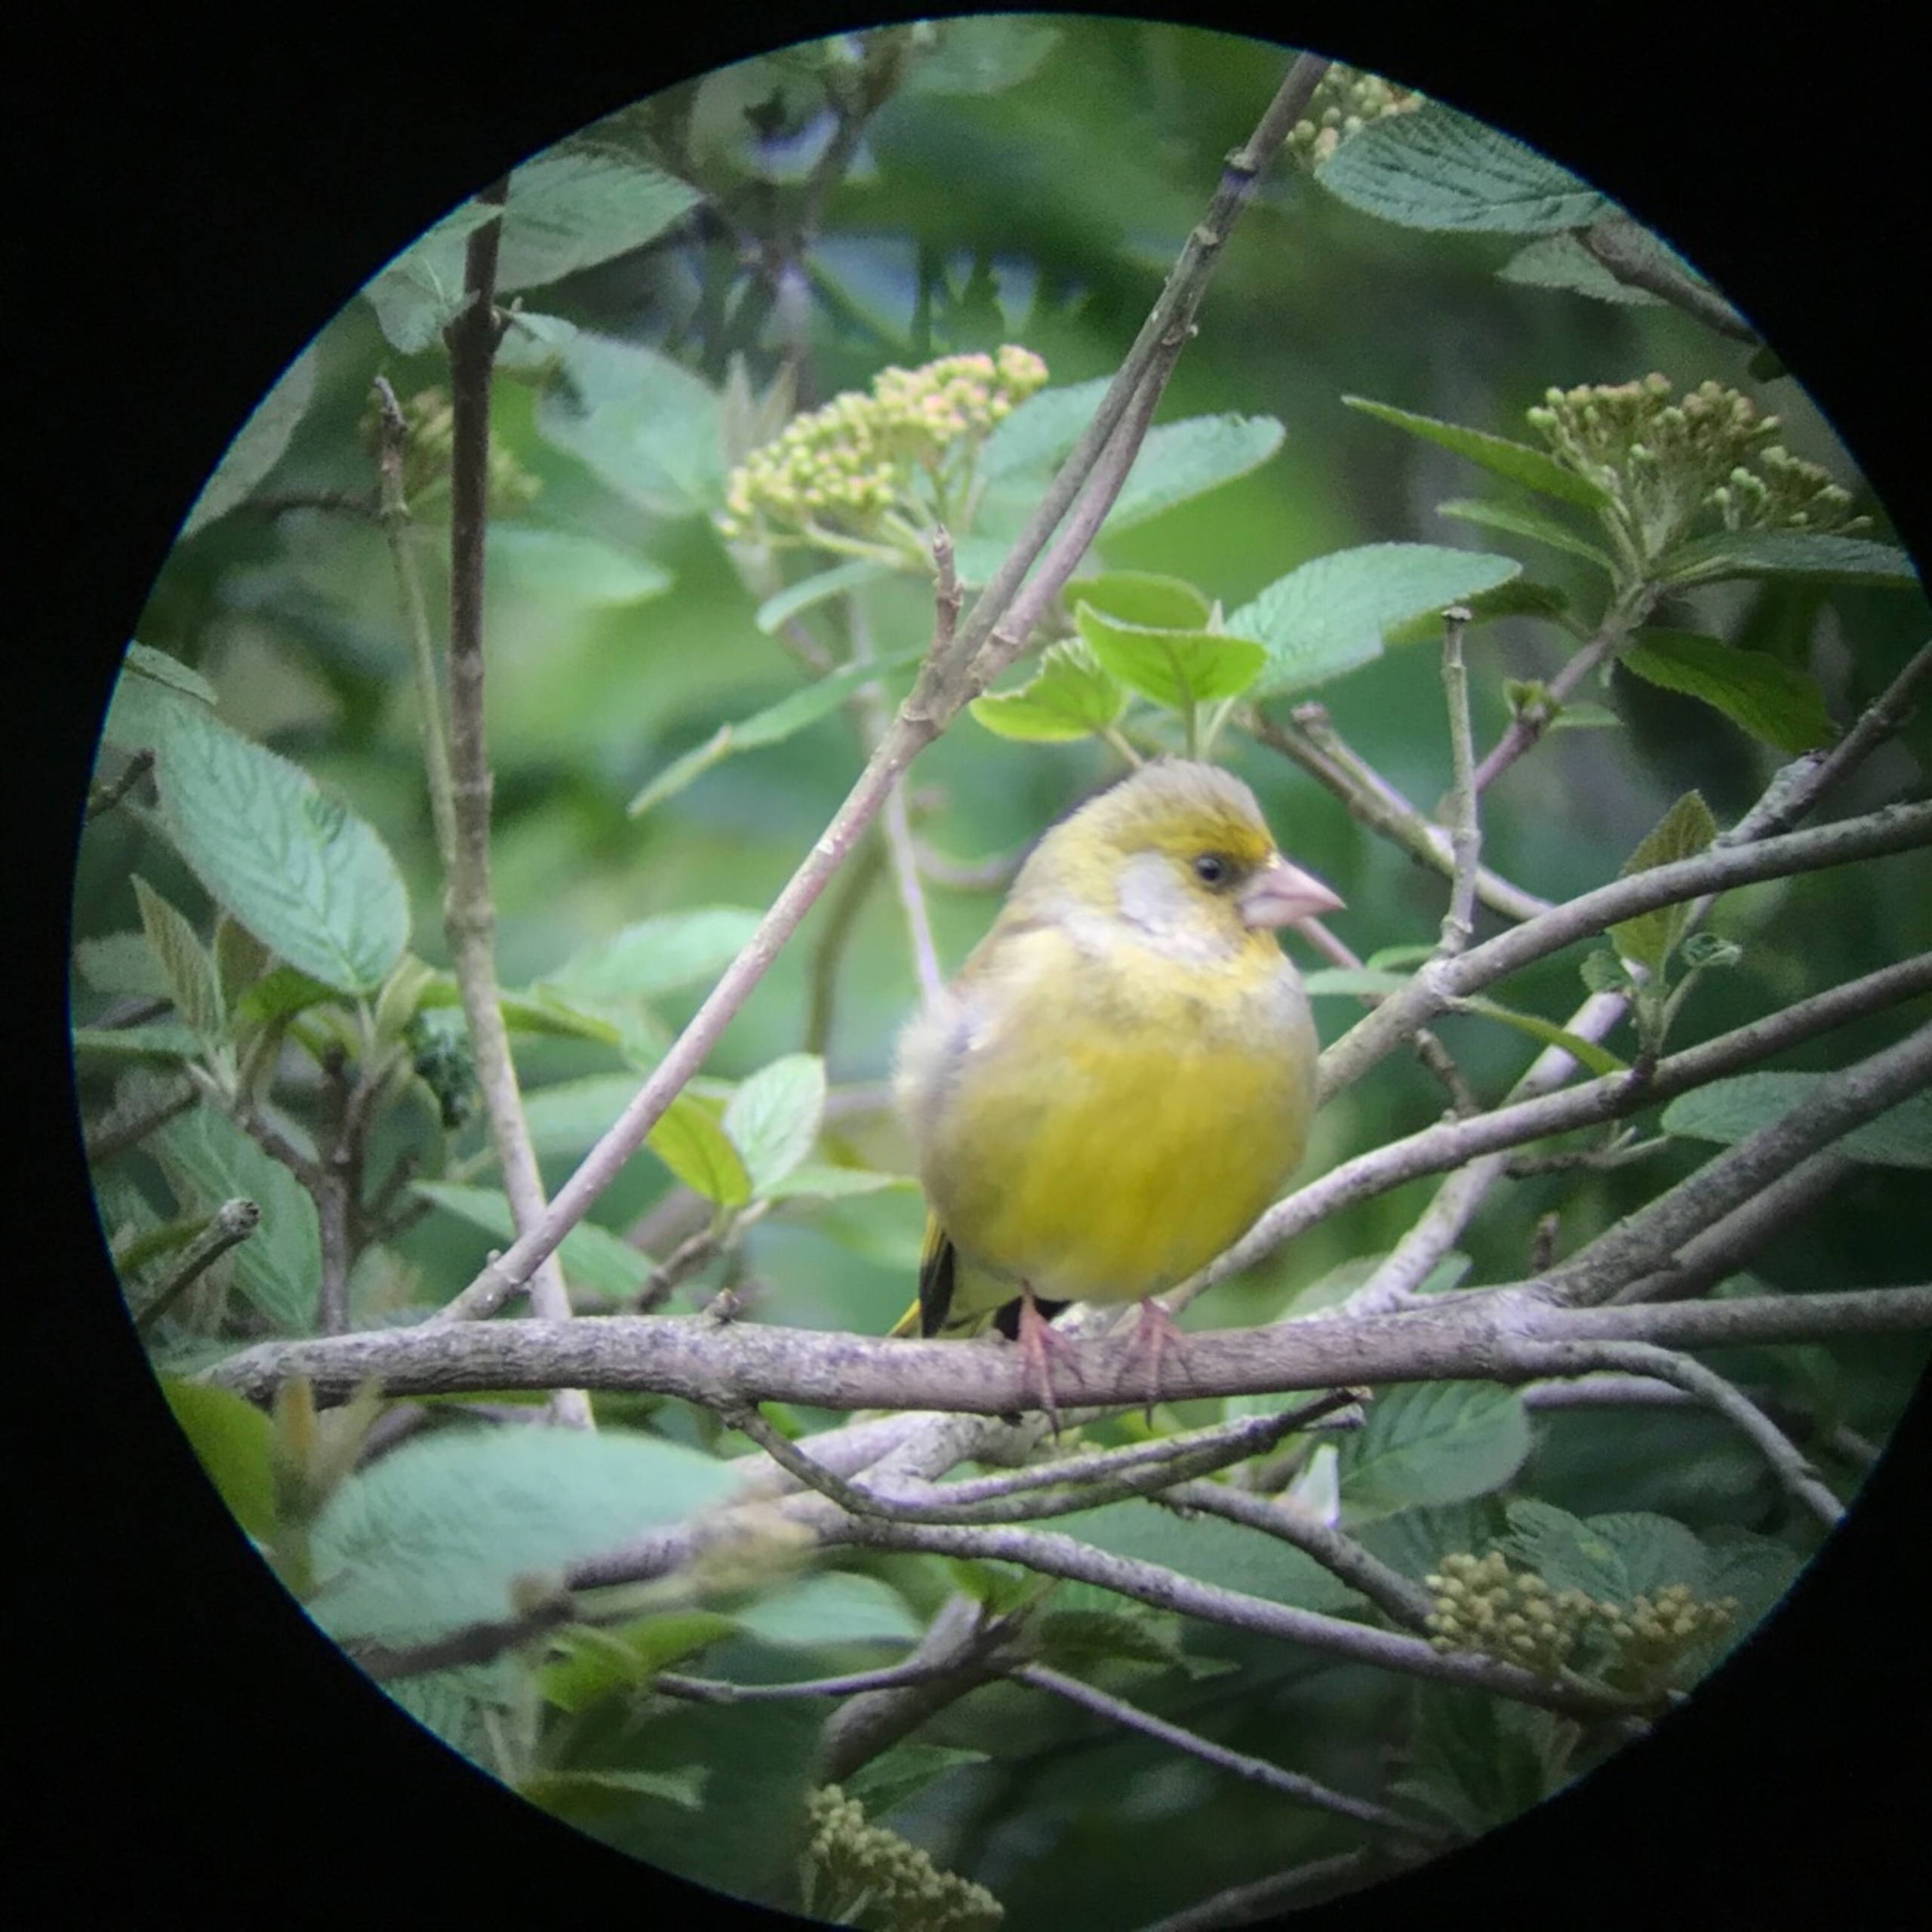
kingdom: Plantae
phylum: Tracheophyta
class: Liliopsida
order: Poales
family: Poaceae
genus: Chloris
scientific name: Chloris chloris
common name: Grønirisk
